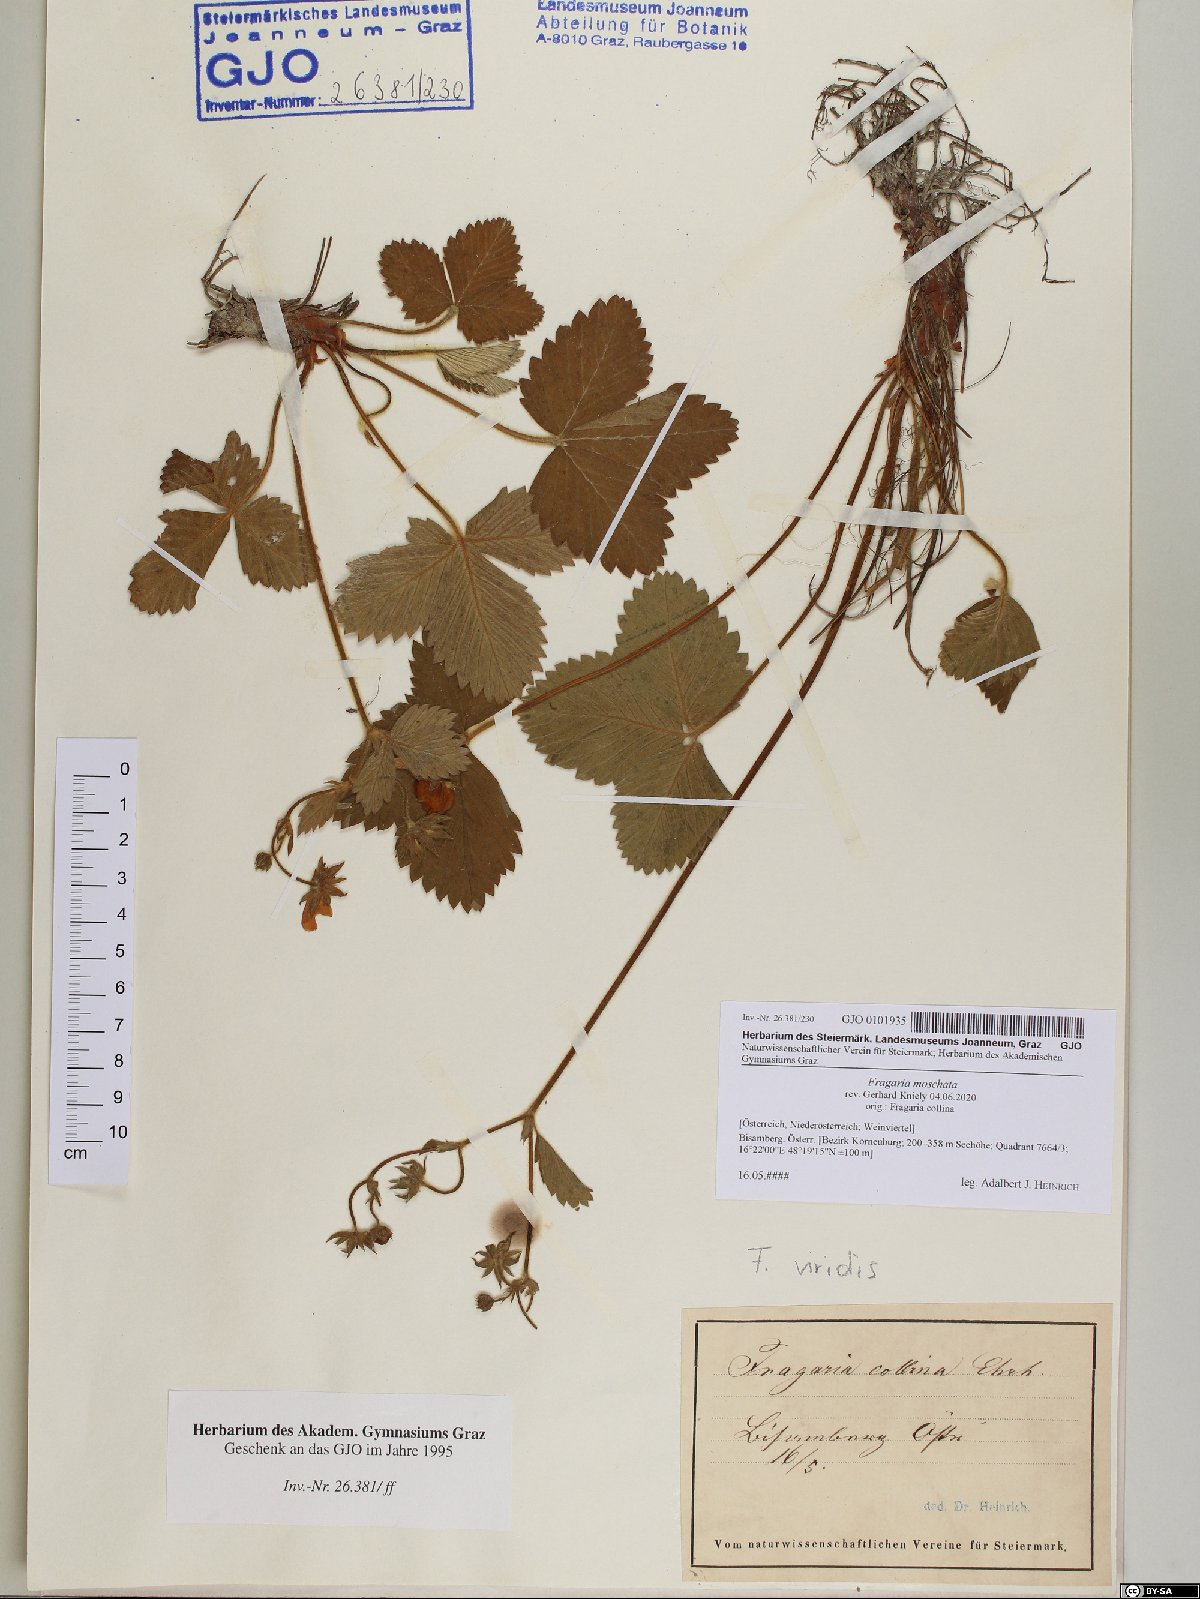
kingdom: Plantae
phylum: Tracheophyta
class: Magnoliopsida
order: Rosales
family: Rosaceae
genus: Fragaria
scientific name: Fragaria moschata
